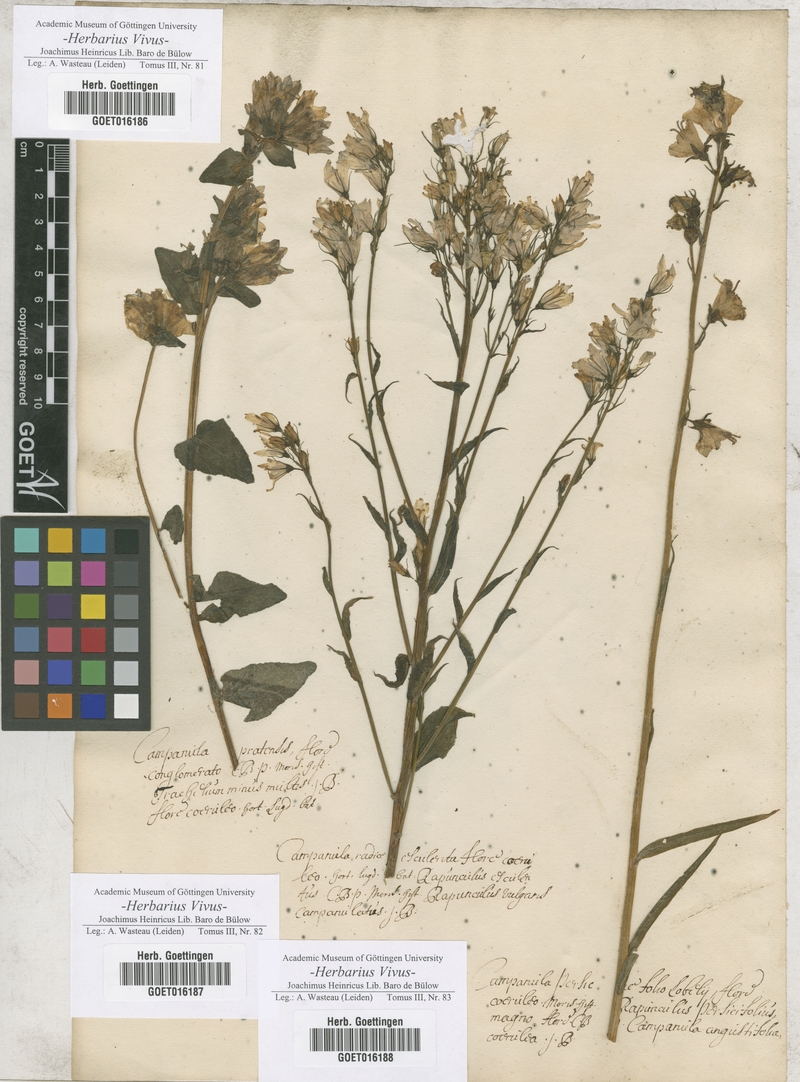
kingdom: Plantae
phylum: Tracheophyta
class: Magnoliopsida
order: Asterales
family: Campanulaceae
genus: Campanula
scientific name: Campanula glomerata
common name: Clustered bellflower
